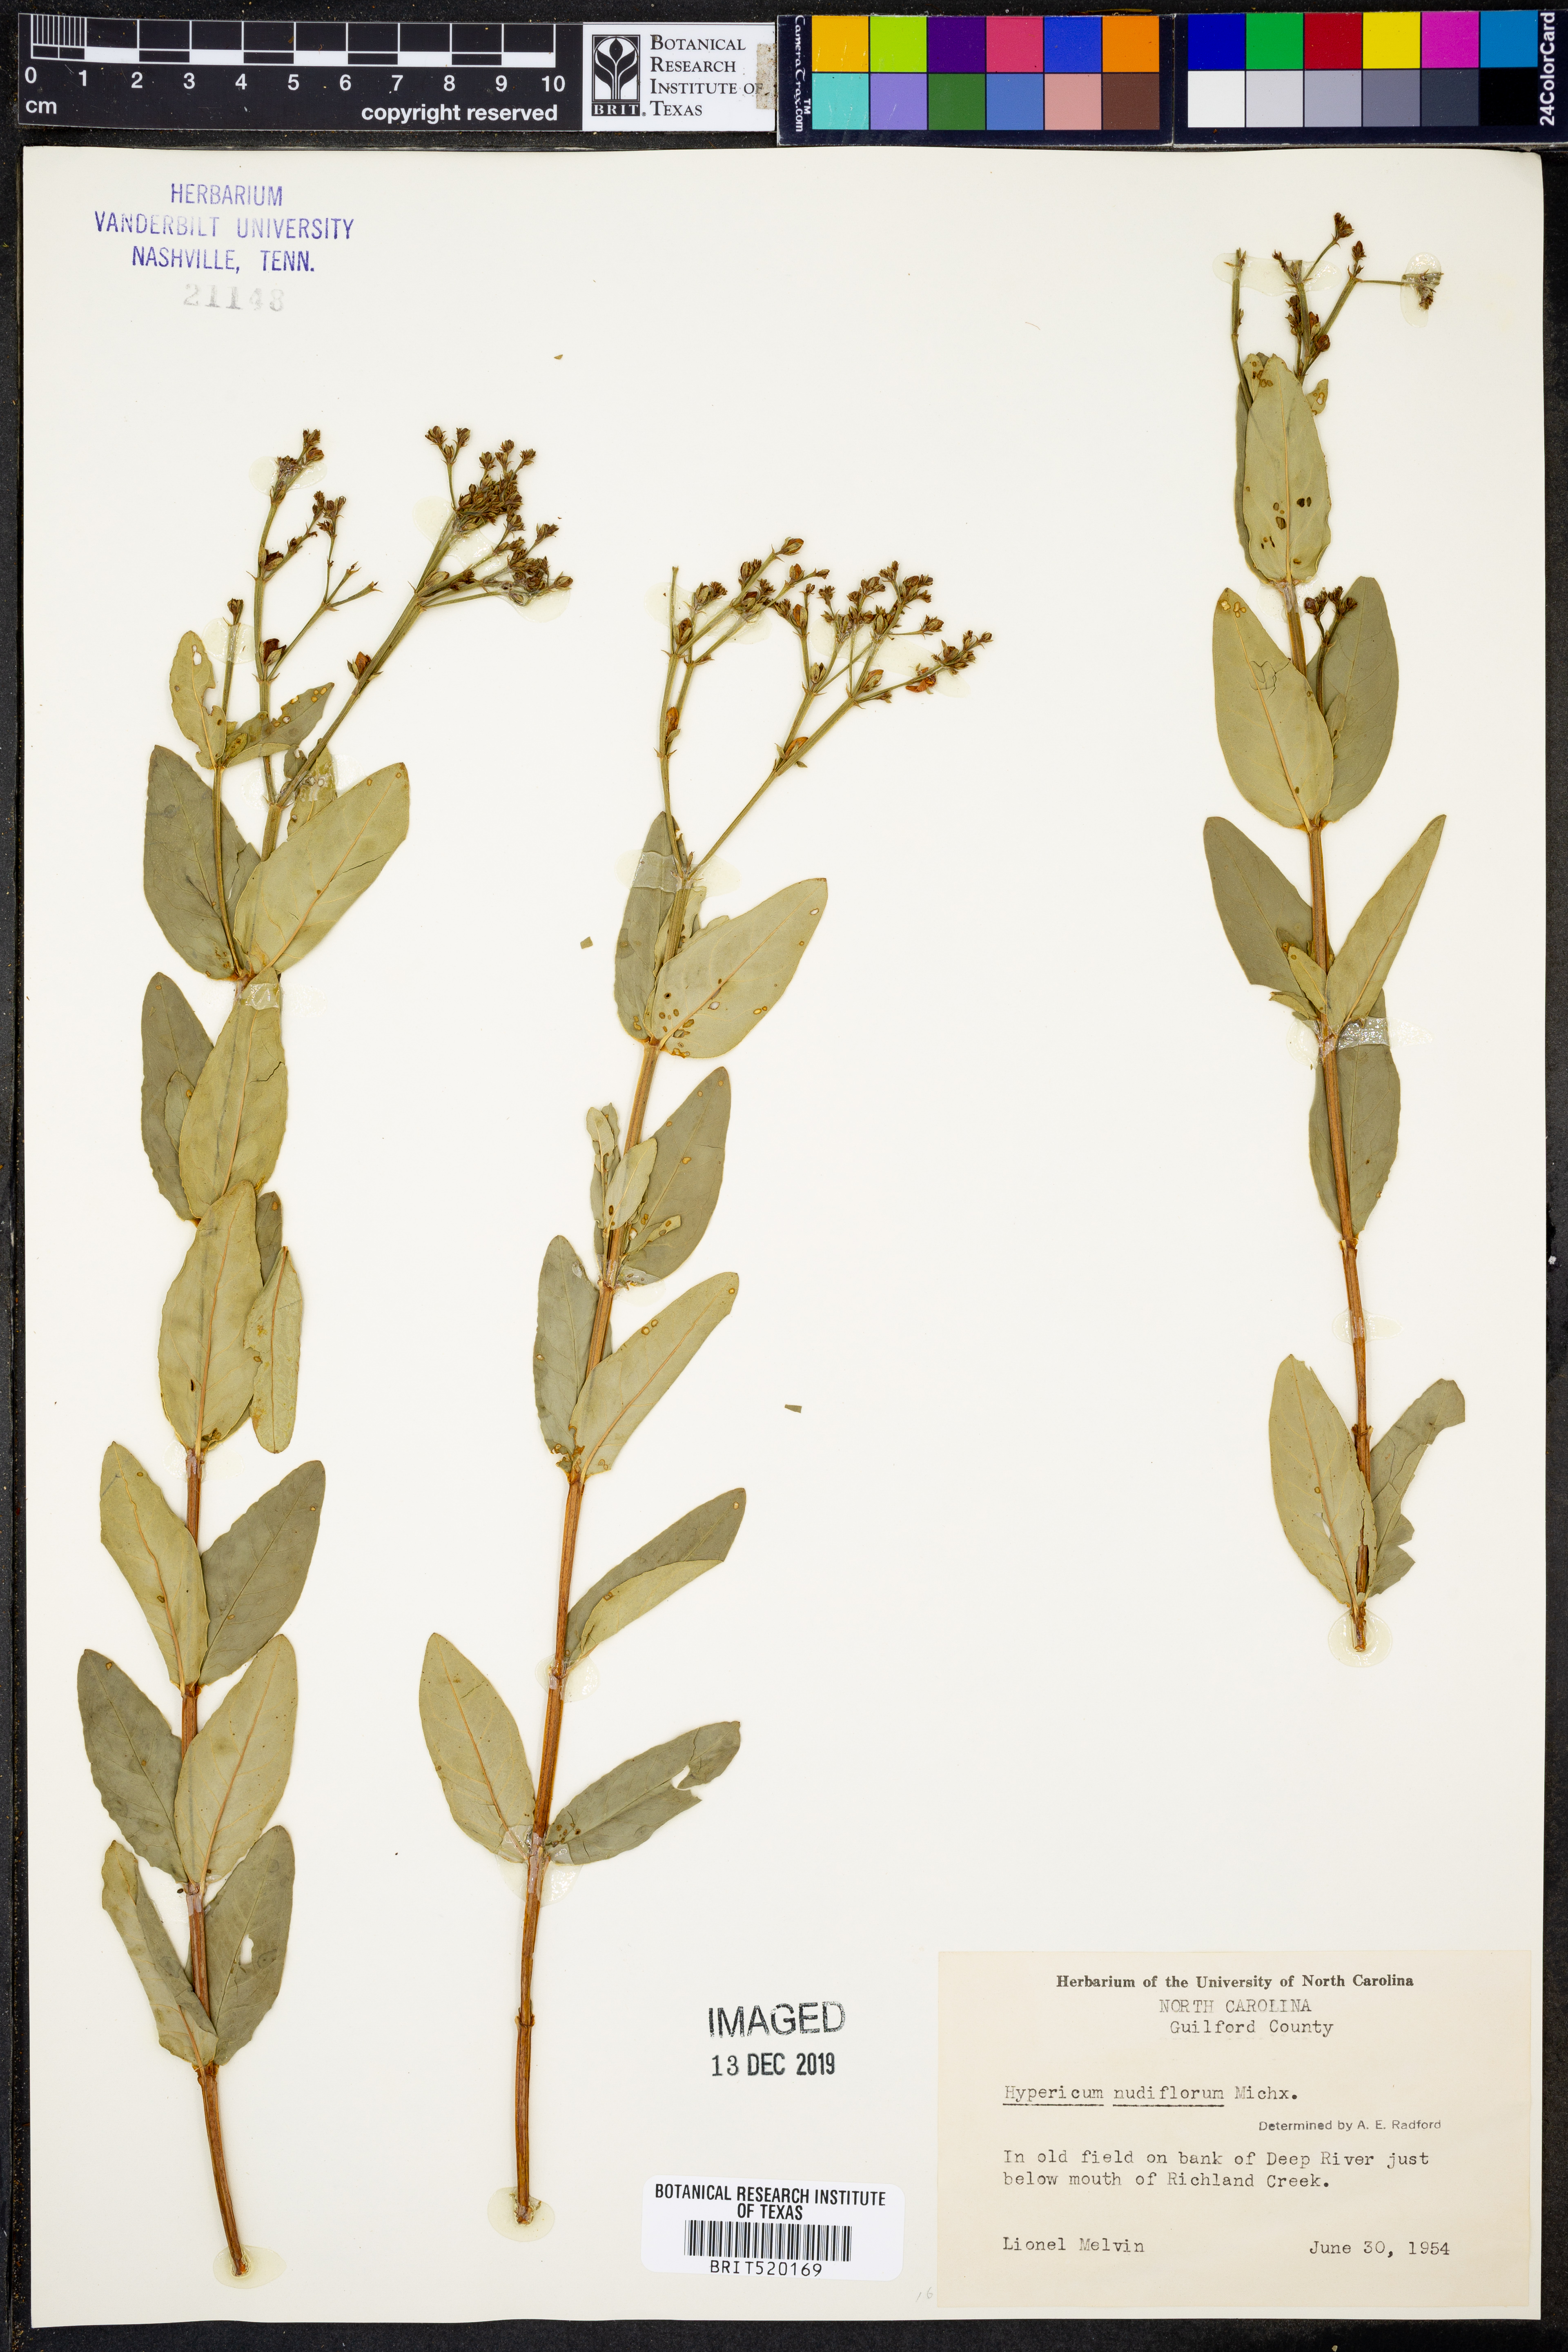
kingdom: Plantae
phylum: Tracheophyta
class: Magnoliopsida
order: Malpighiales
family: Hypericaceae
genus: Hypericum
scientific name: Hypericum nudiflorum
